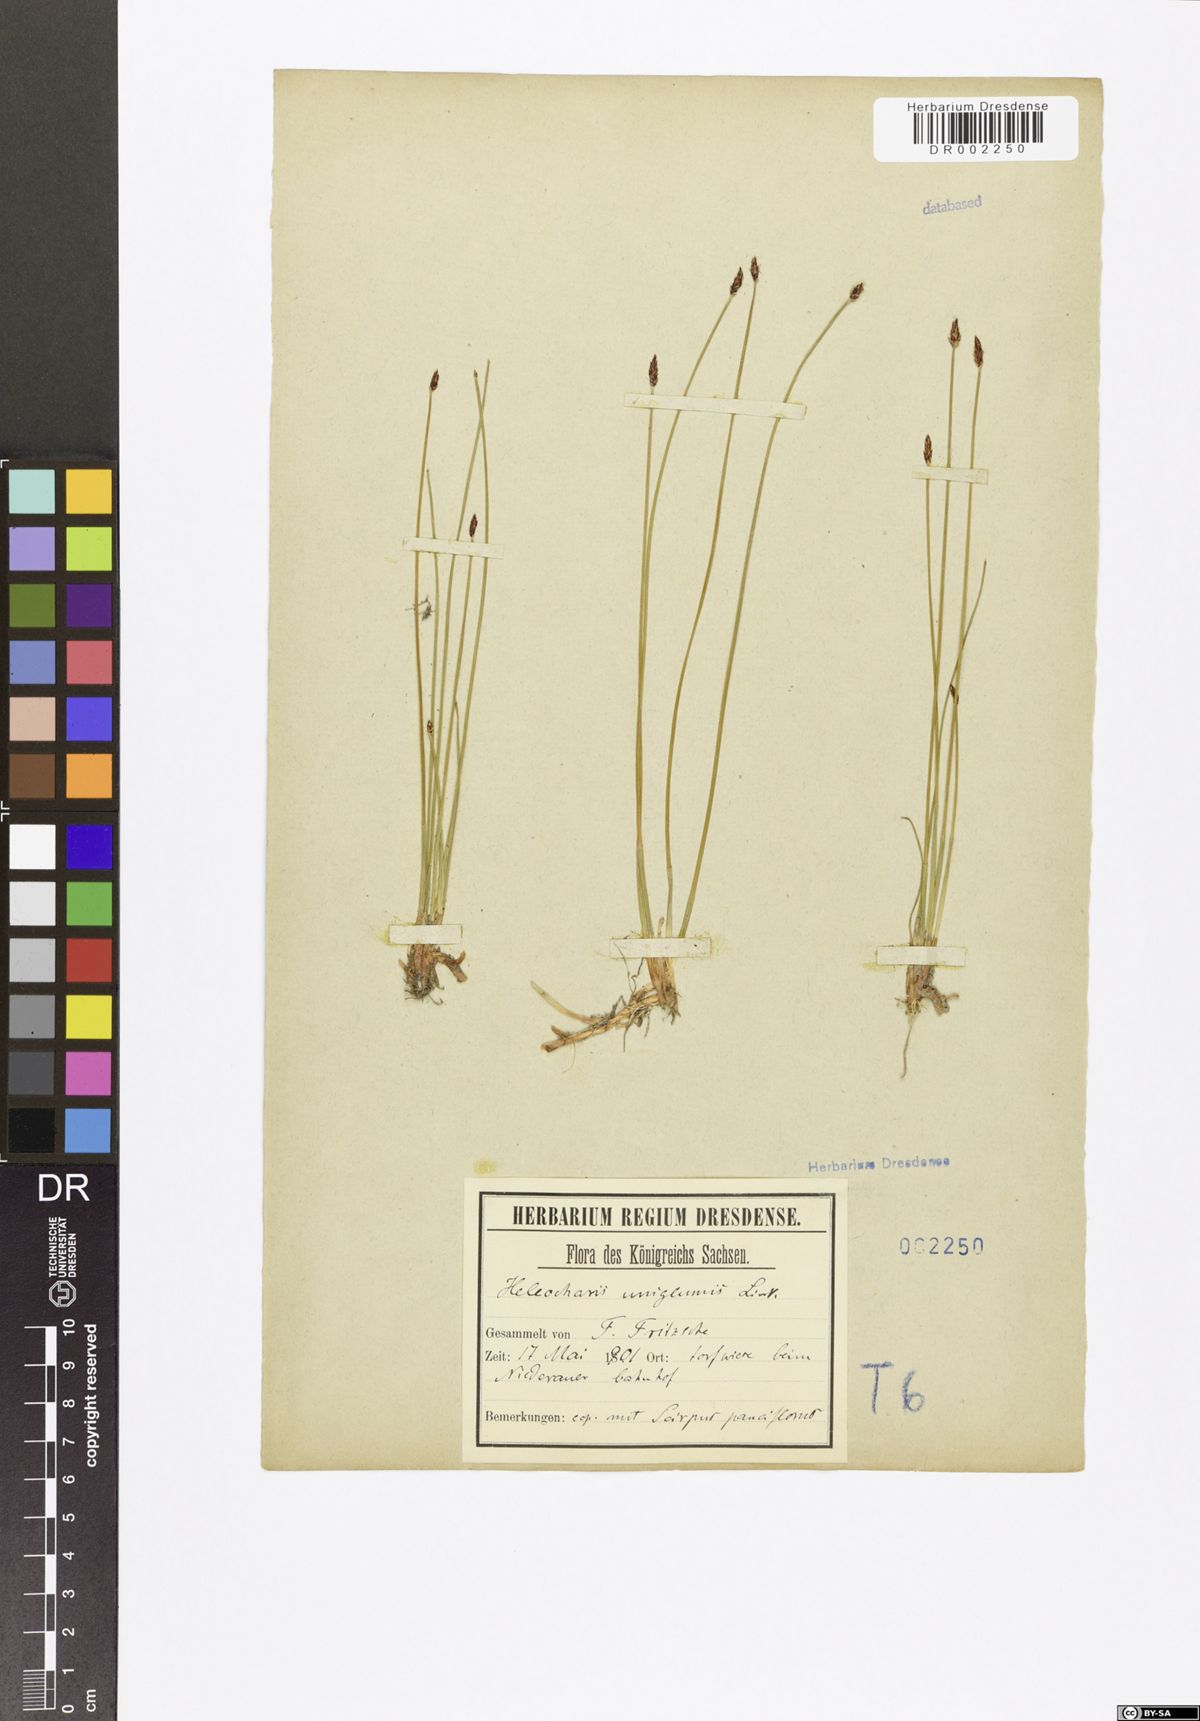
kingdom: Plantae
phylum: Tracheophyta
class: Liliopsida
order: Poales
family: Cyperaceae
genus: Eleocharis
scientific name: Eleocharis uniglumis
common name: Slender spike-rush
